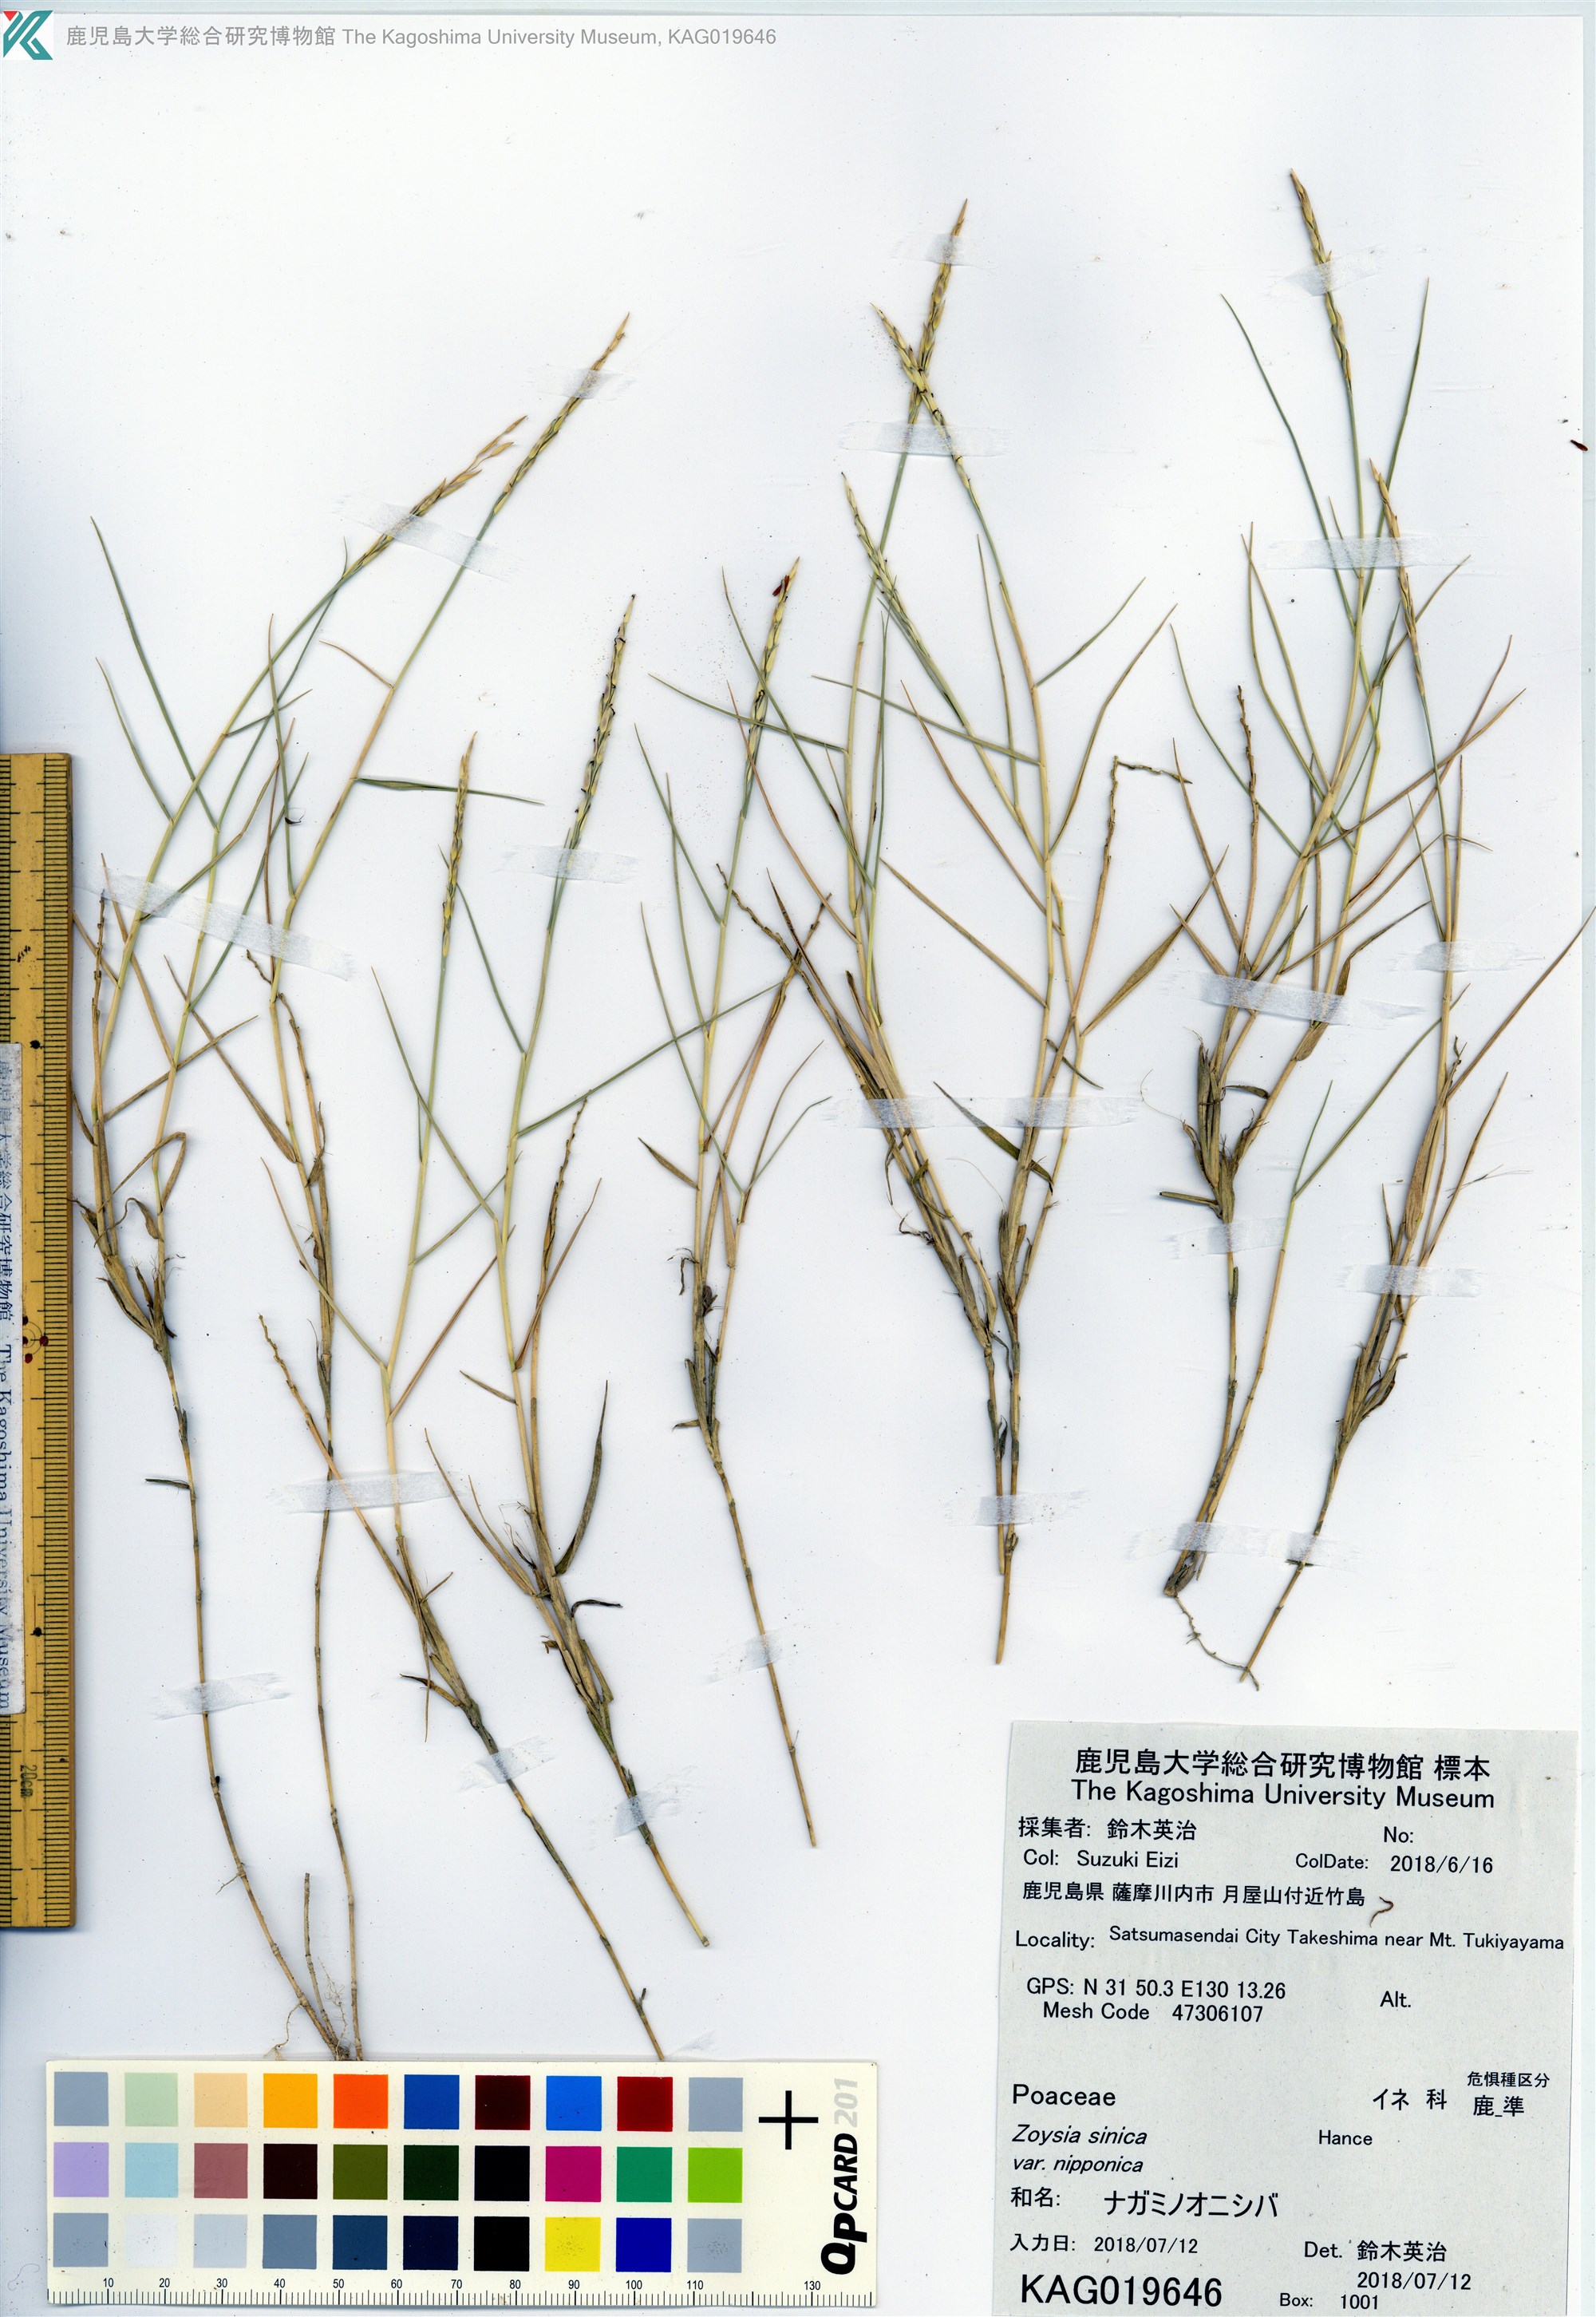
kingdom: Plantae
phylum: Tracheophyta
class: Liliopsida
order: Poales
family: Poaceae
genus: Zoysia
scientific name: Zoysia sinica
